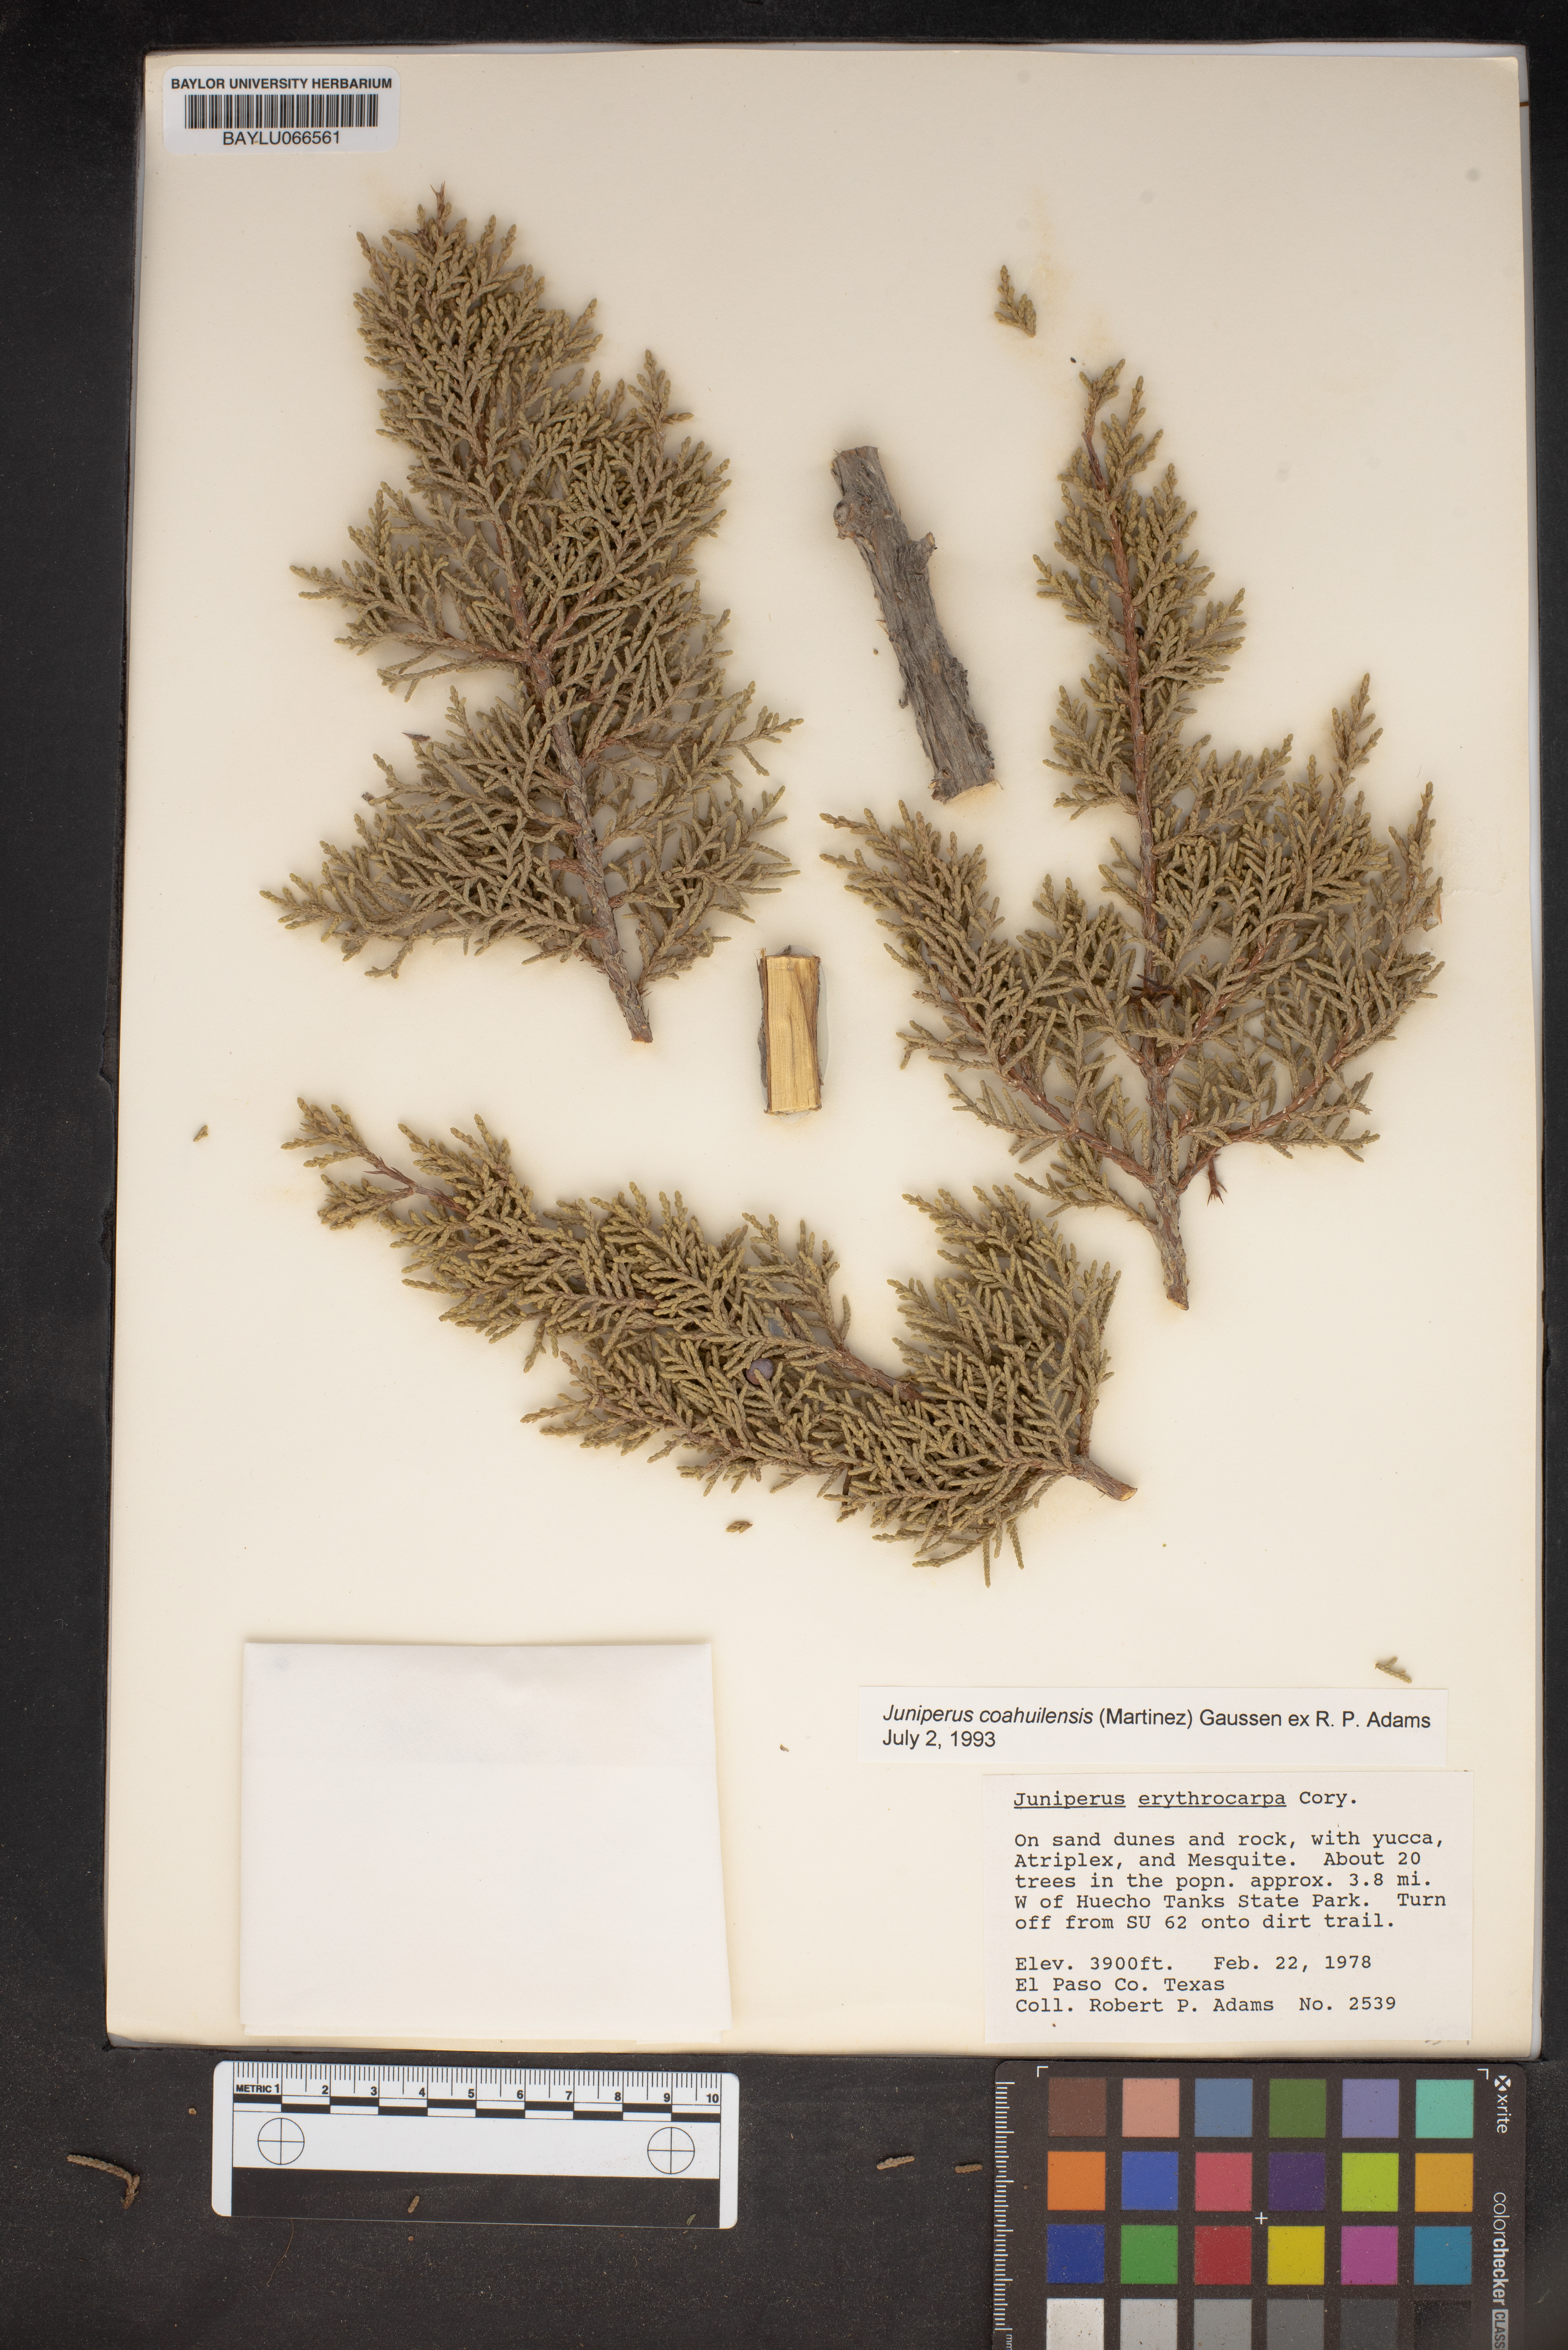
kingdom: Plantae
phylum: Tracheophyta
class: Pinopsida
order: Pinales
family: Cupressaceae
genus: Juniperus
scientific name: Juniperus coahuilensis
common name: Roseberry
